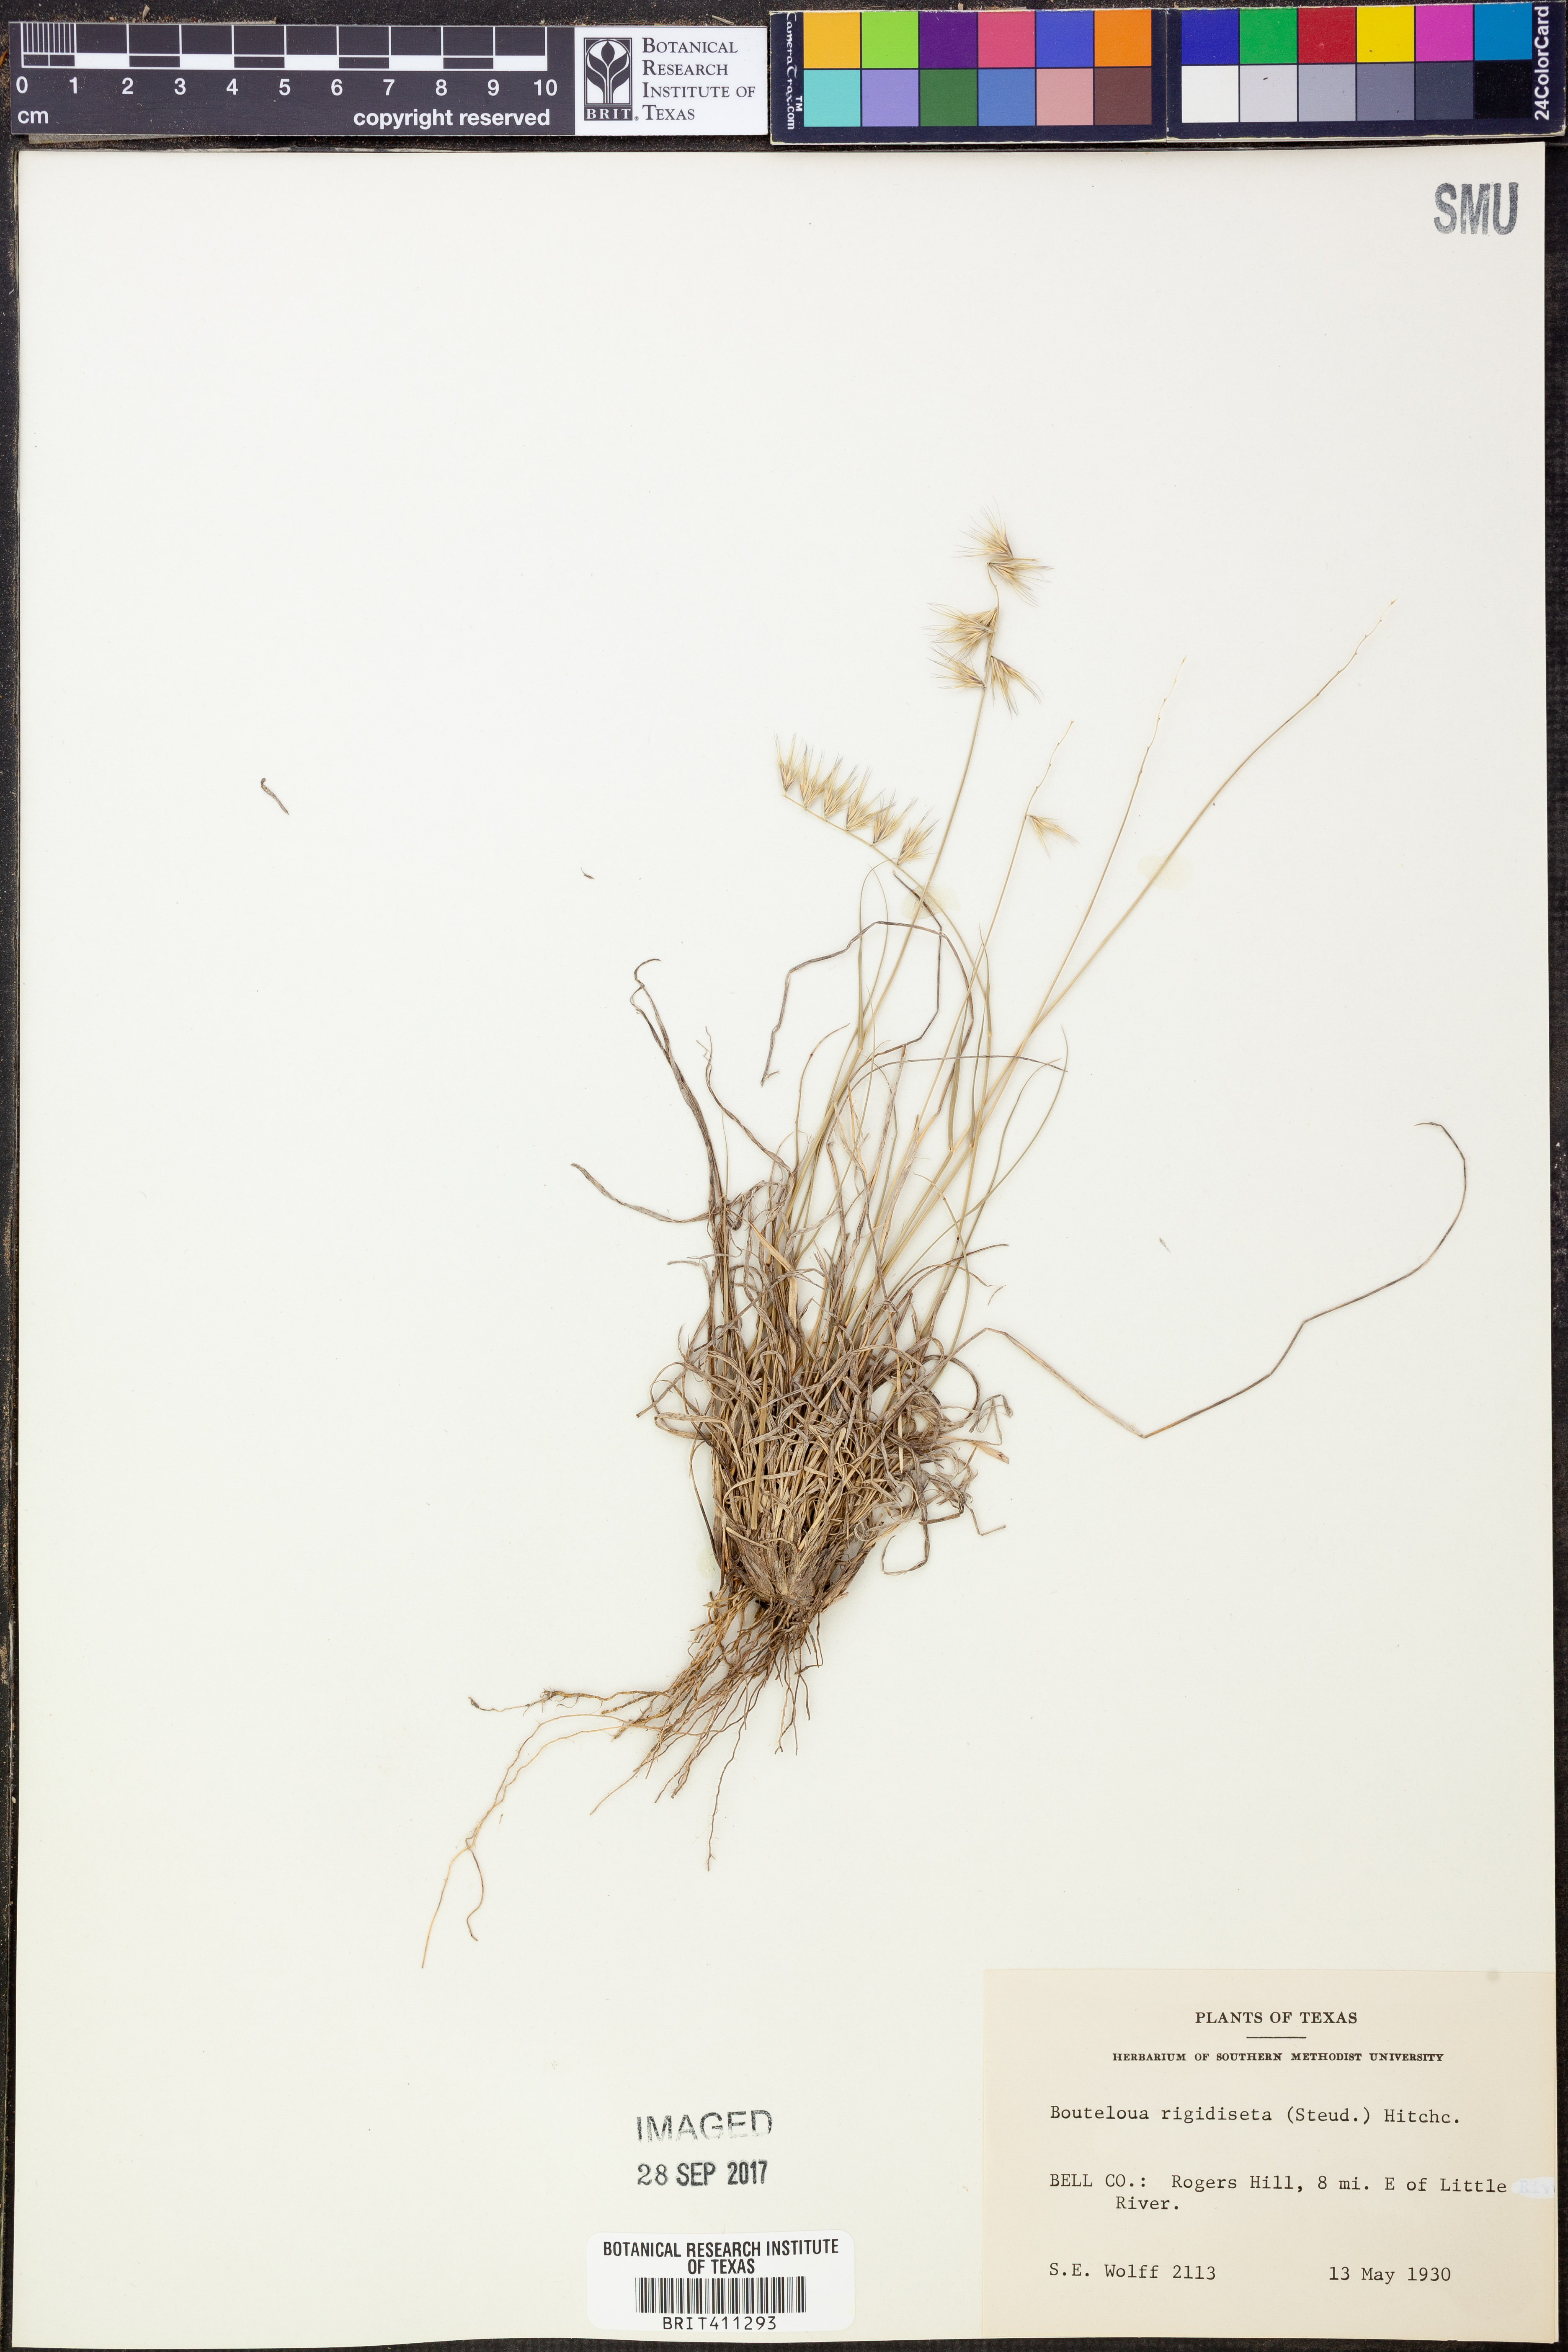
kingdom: Plantae
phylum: Tracheophyta
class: Liliopsida
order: Poales
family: Poaceae
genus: Bouteloua
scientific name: Bouteloua rigidiseta
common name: Texas grama
